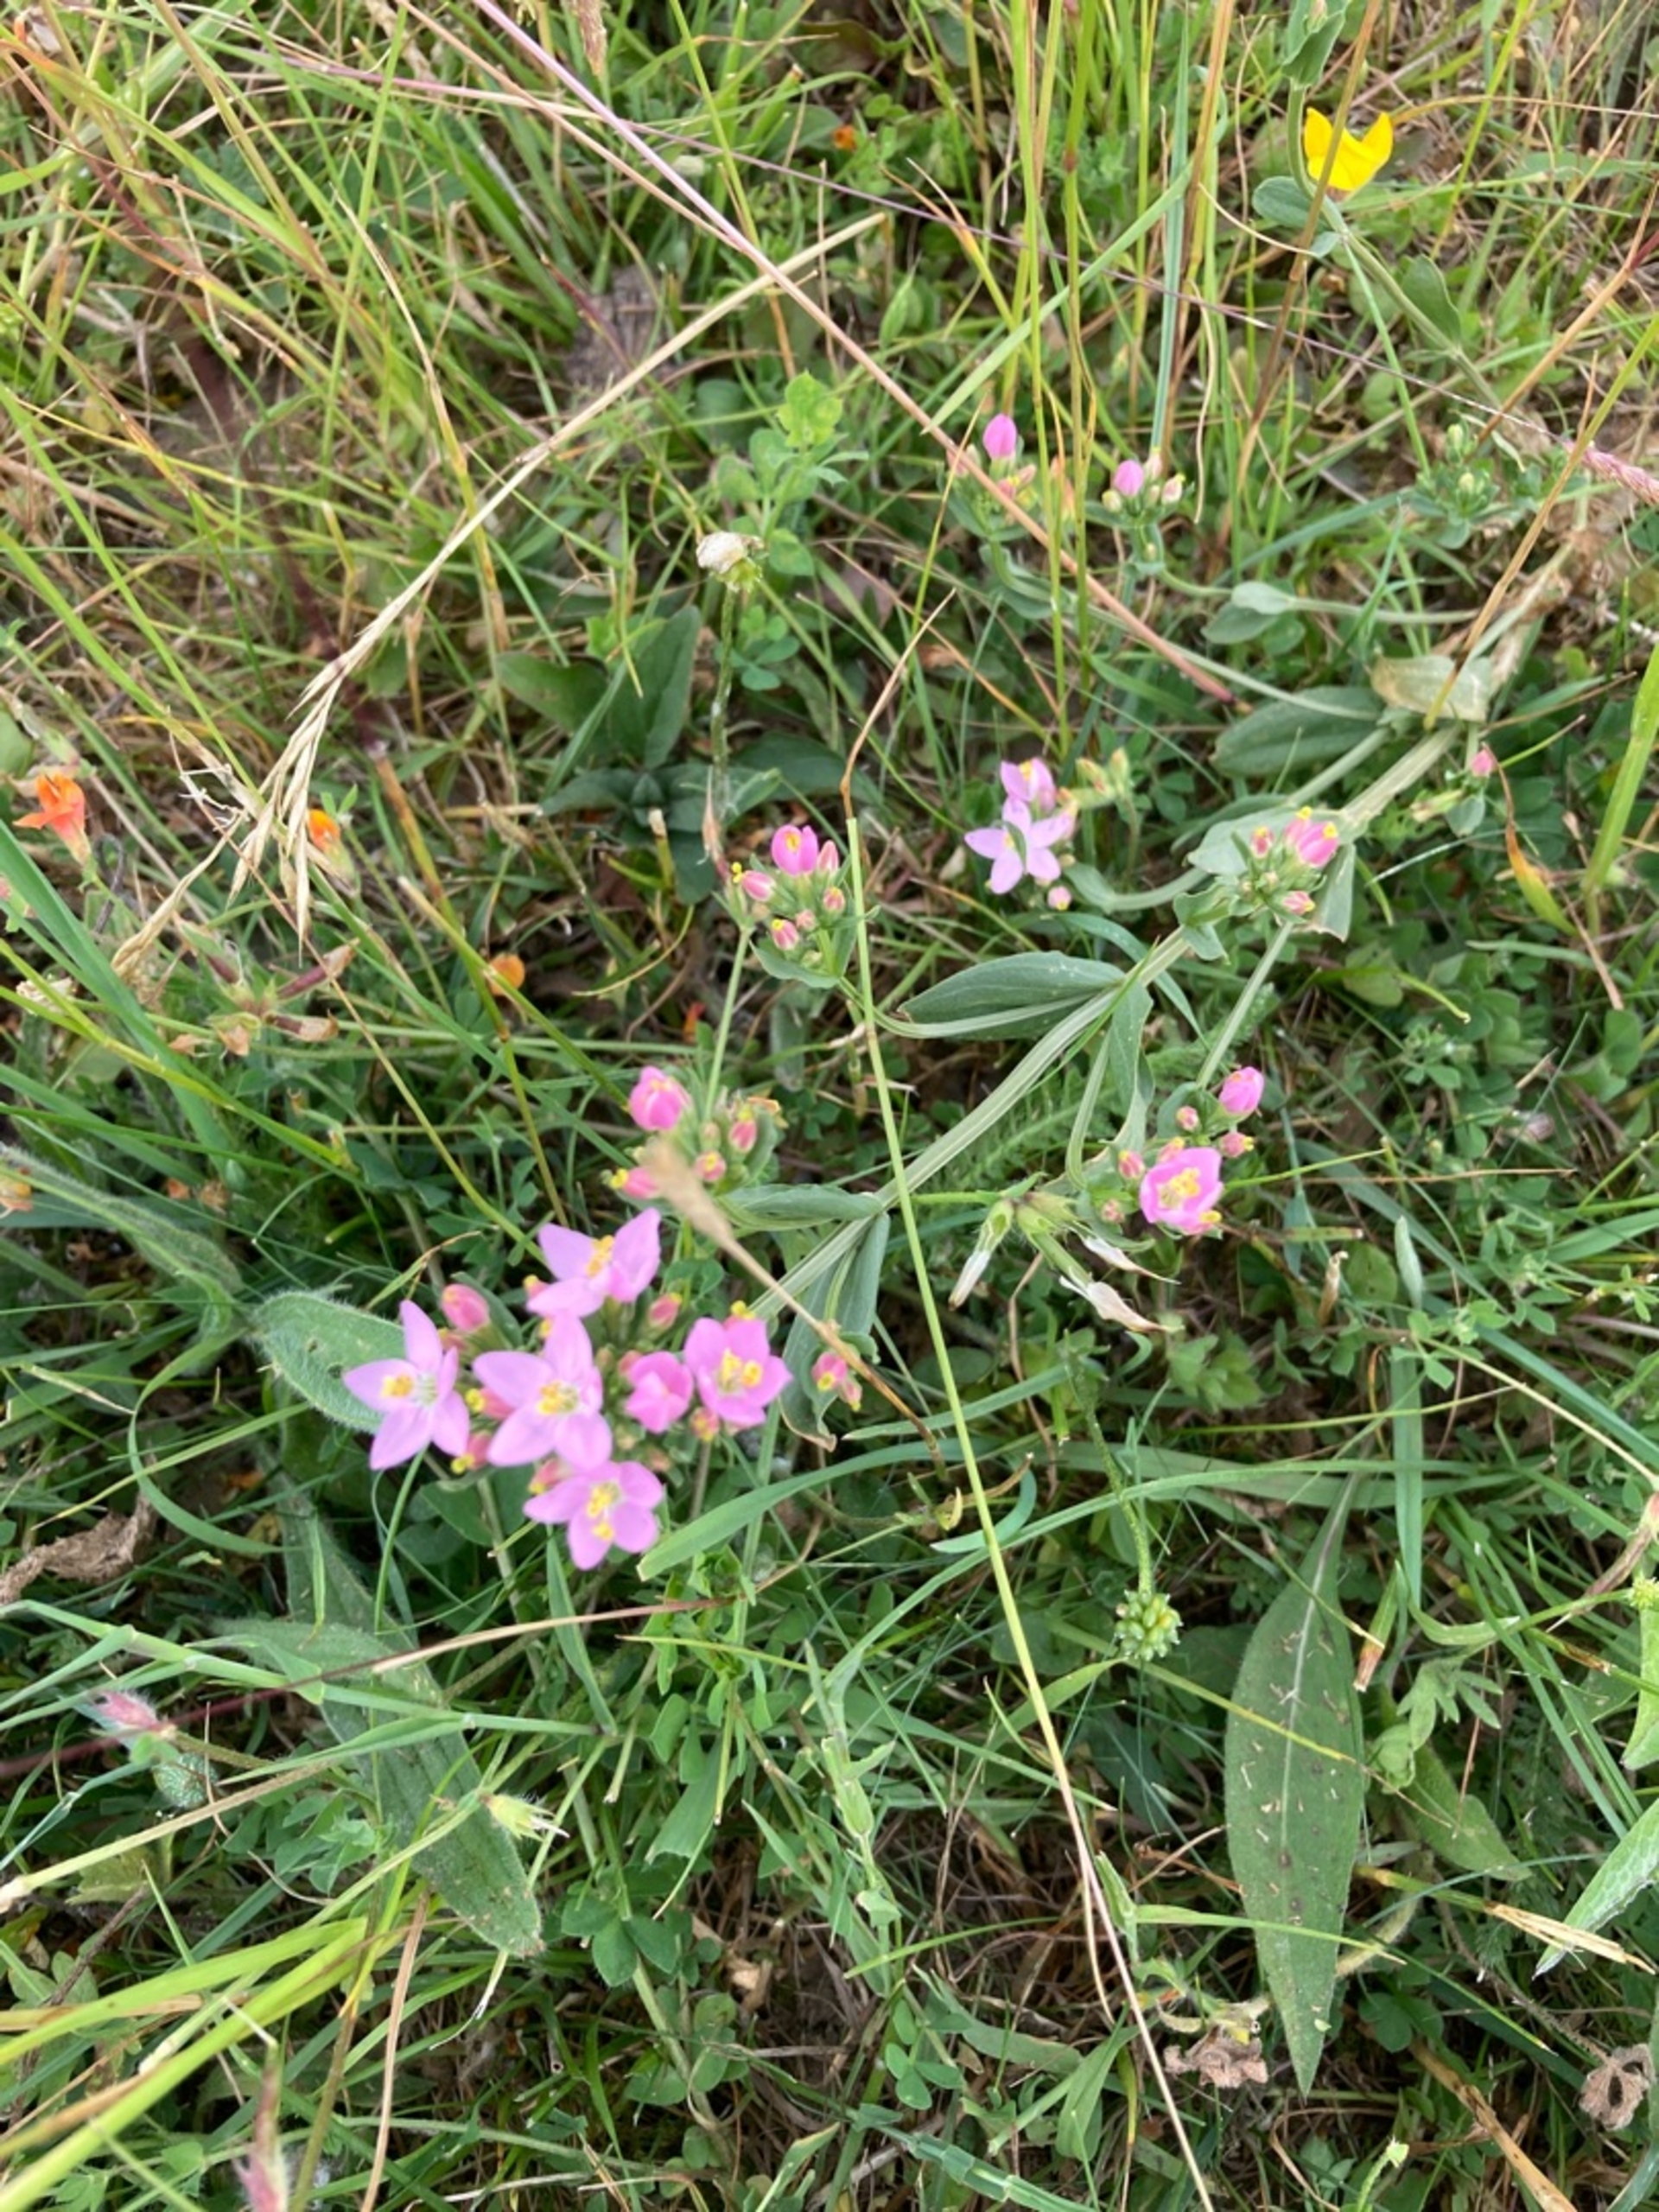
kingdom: Plantae
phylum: Tracheophyta
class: Magnoliopsida
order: Gentianales
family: Gentianaceae
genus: Centaurium
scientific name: Centaurium erythraea
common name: Mark-tusindgylden
